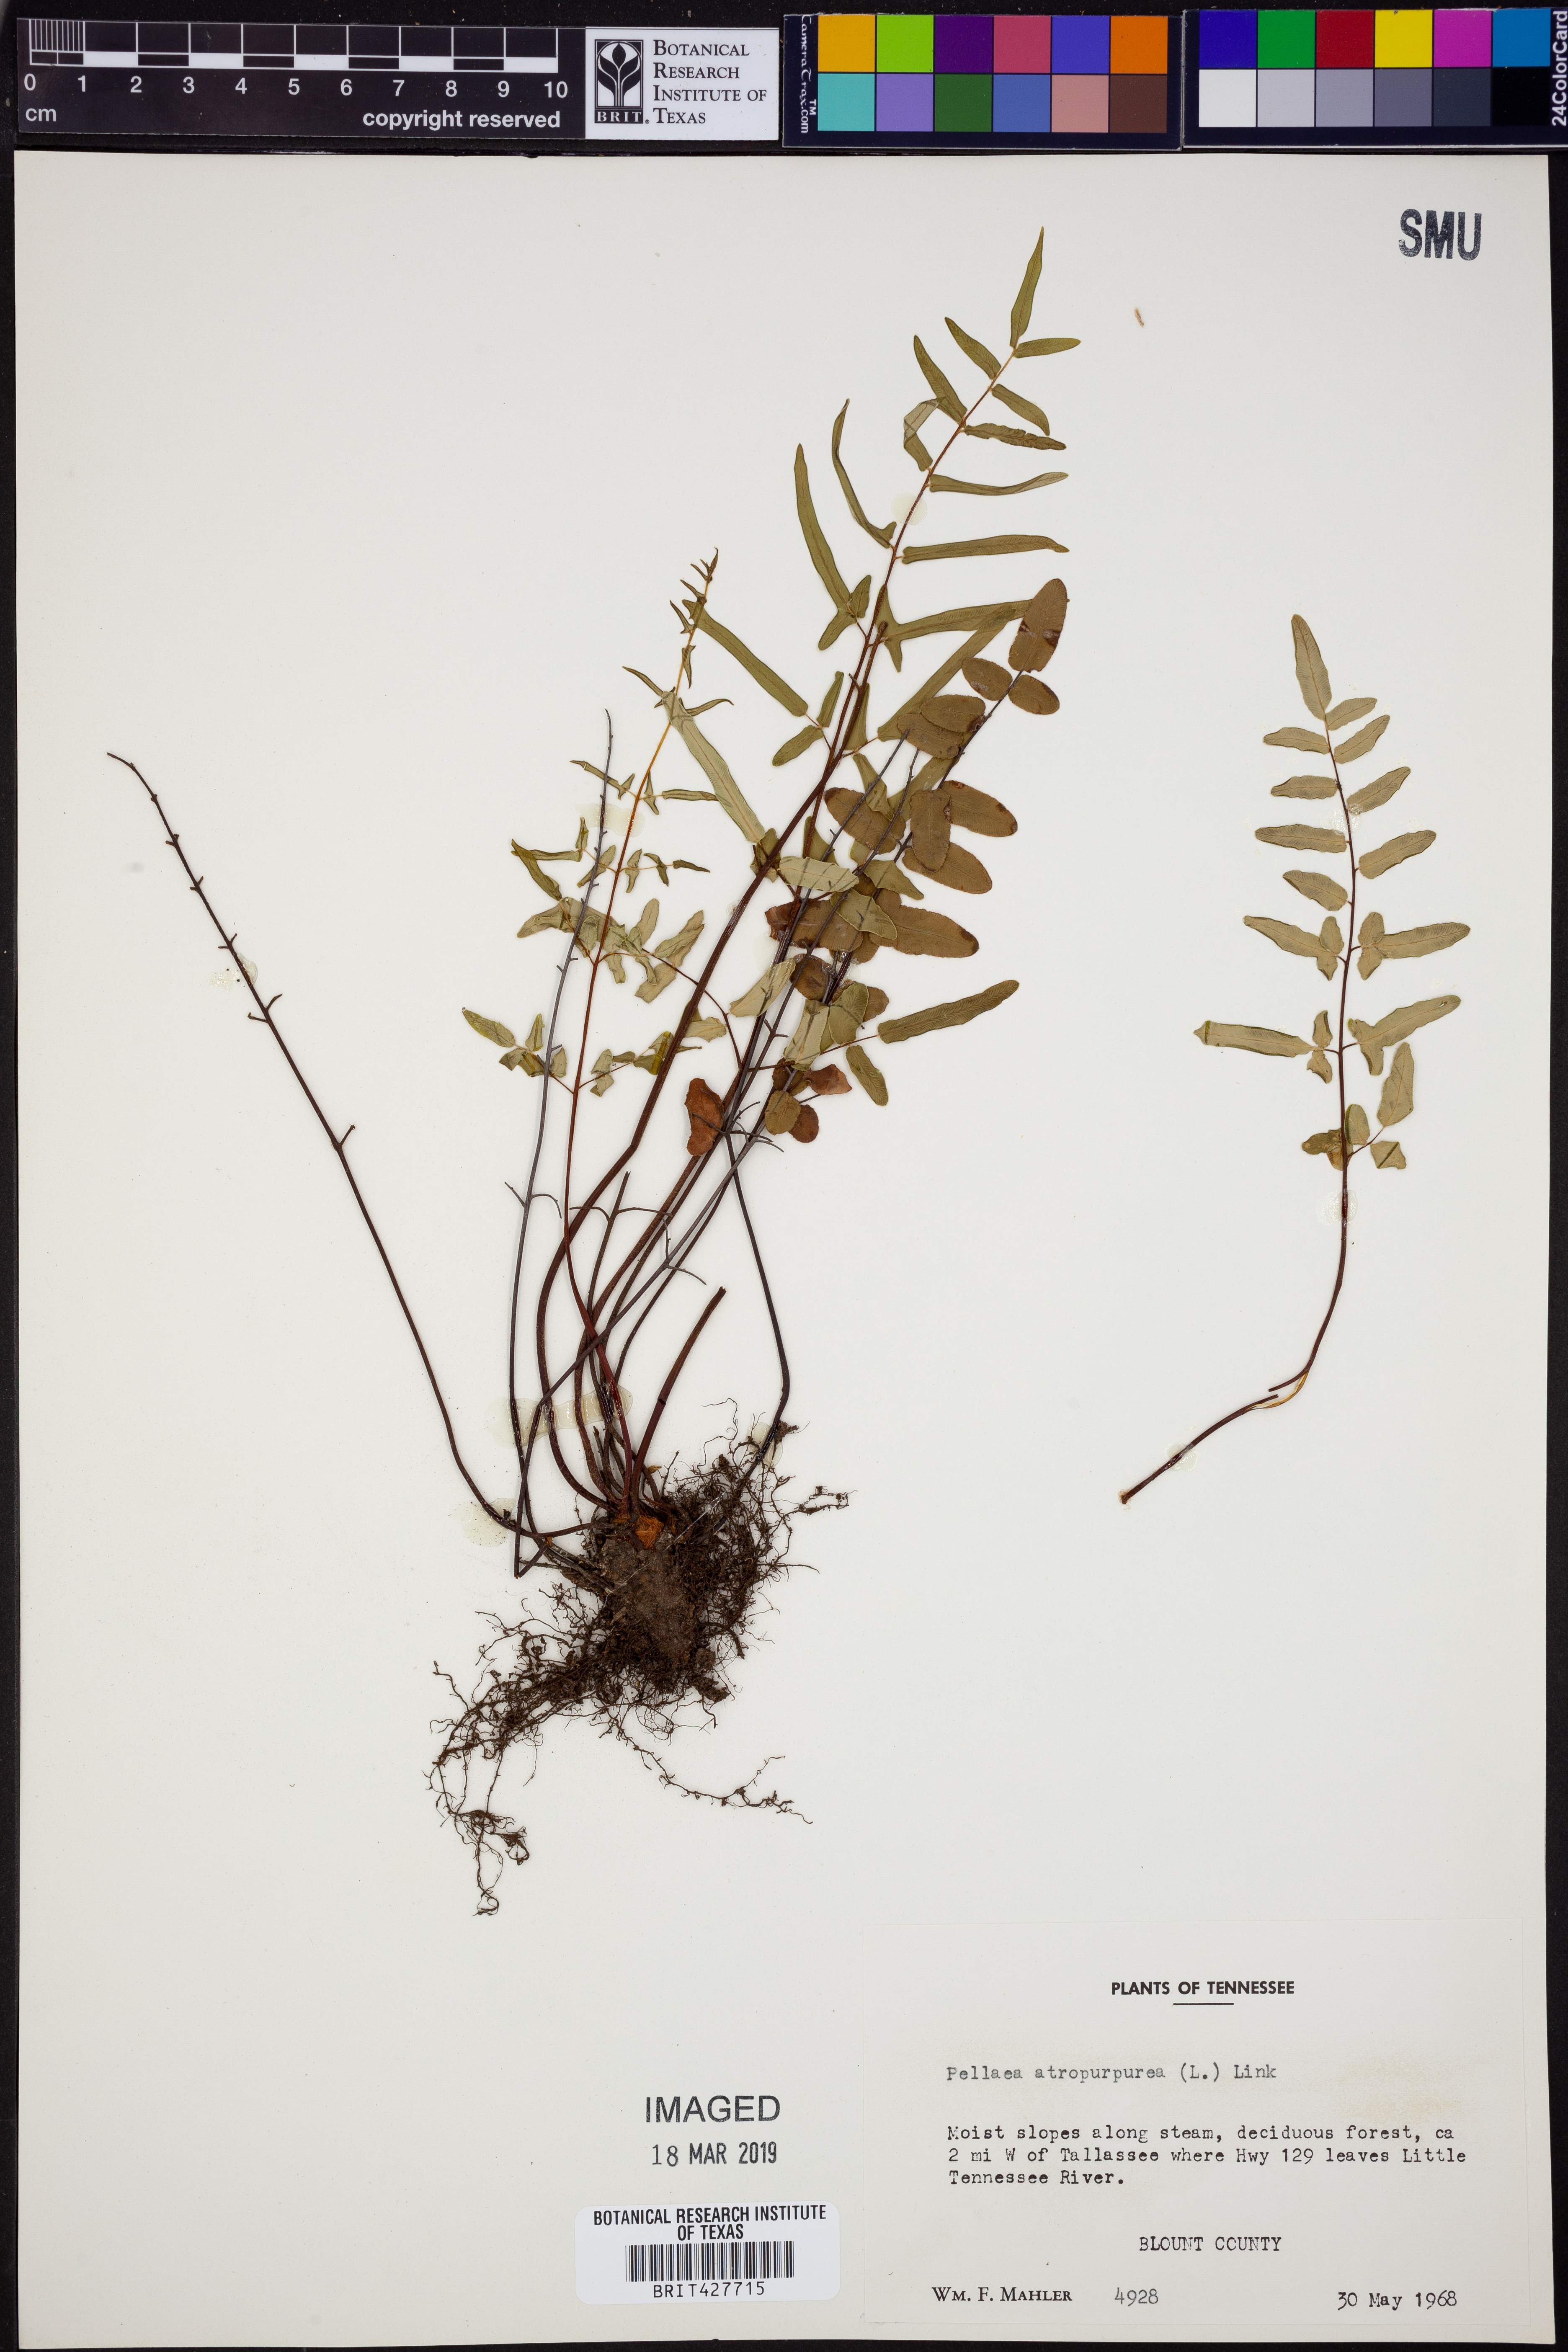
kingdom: Plantae
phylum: Tracheophyta
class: Polypodiopsida
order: Polypodiales
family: Pteridaceae
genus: Pellaea
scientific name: Pellaea atropurpurea
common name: Hairy cliffbrake
